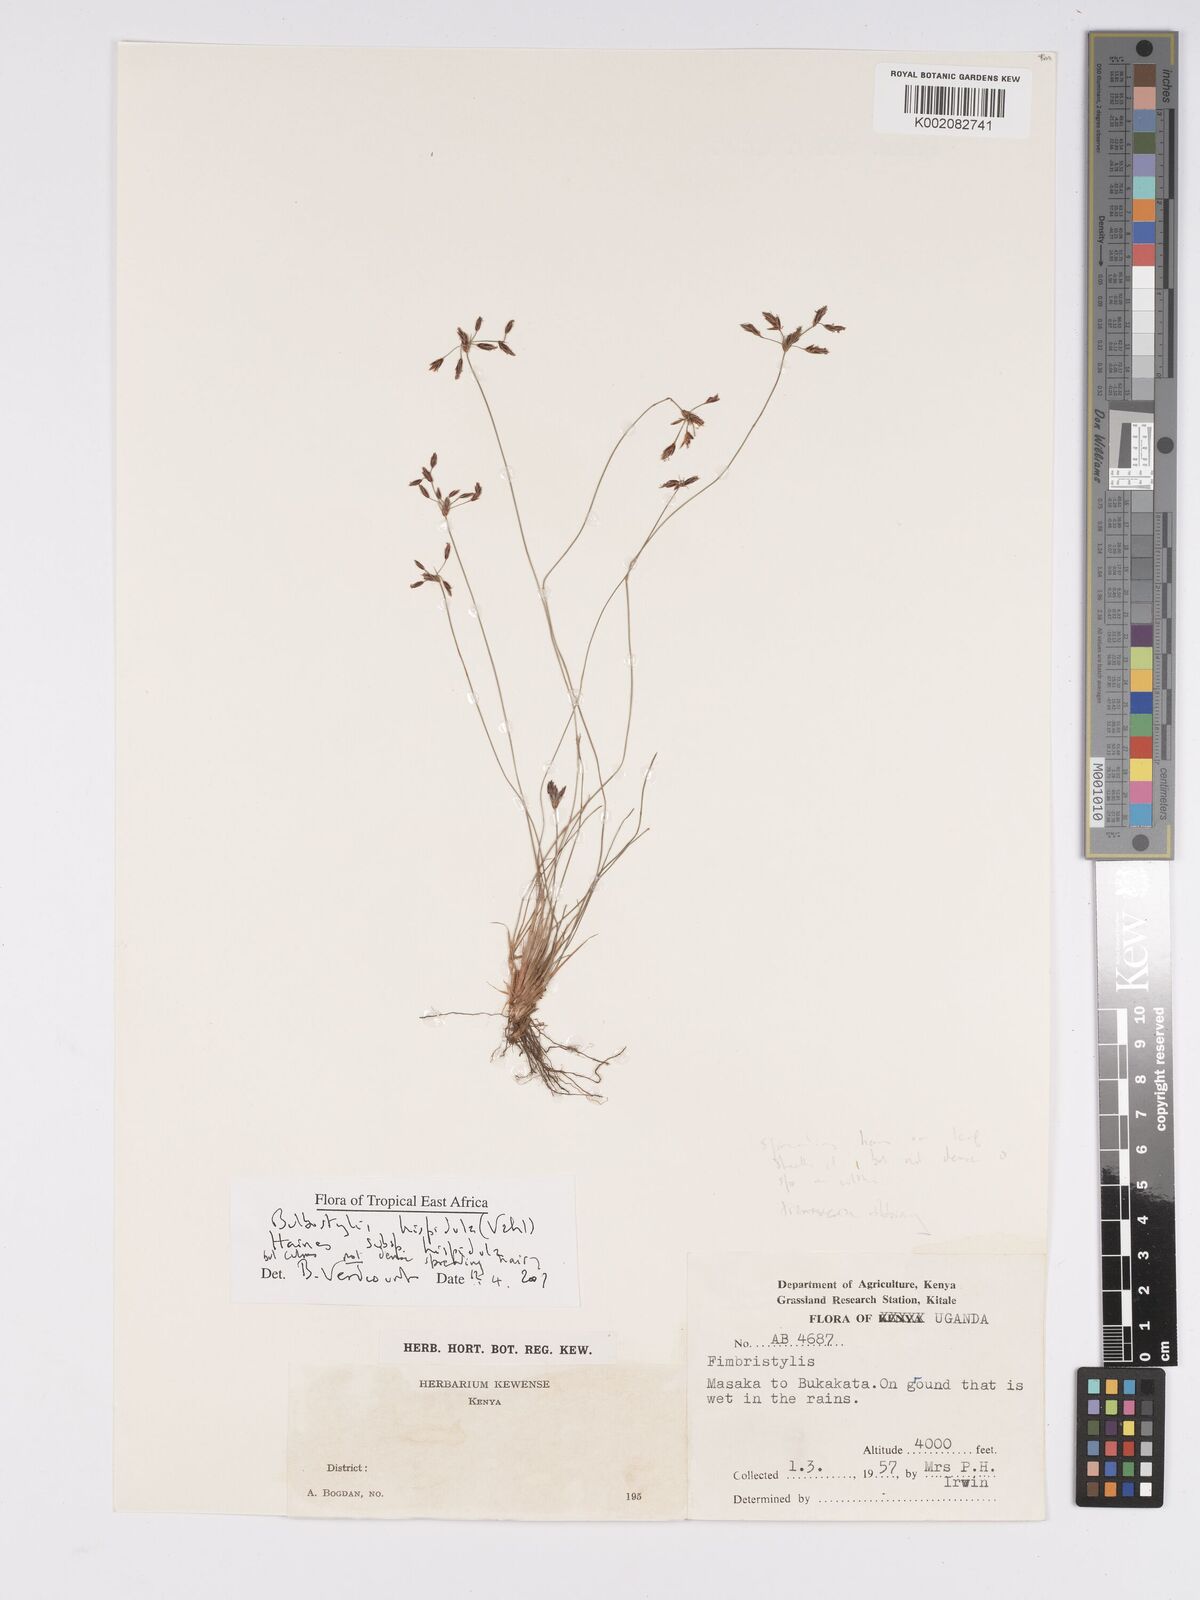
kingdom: Plantae
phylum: Tracheophyta
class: Liliopsida
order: Poales
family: Cyperaceae
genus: Bulbostylis
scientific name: Bulbostylis hispidula
